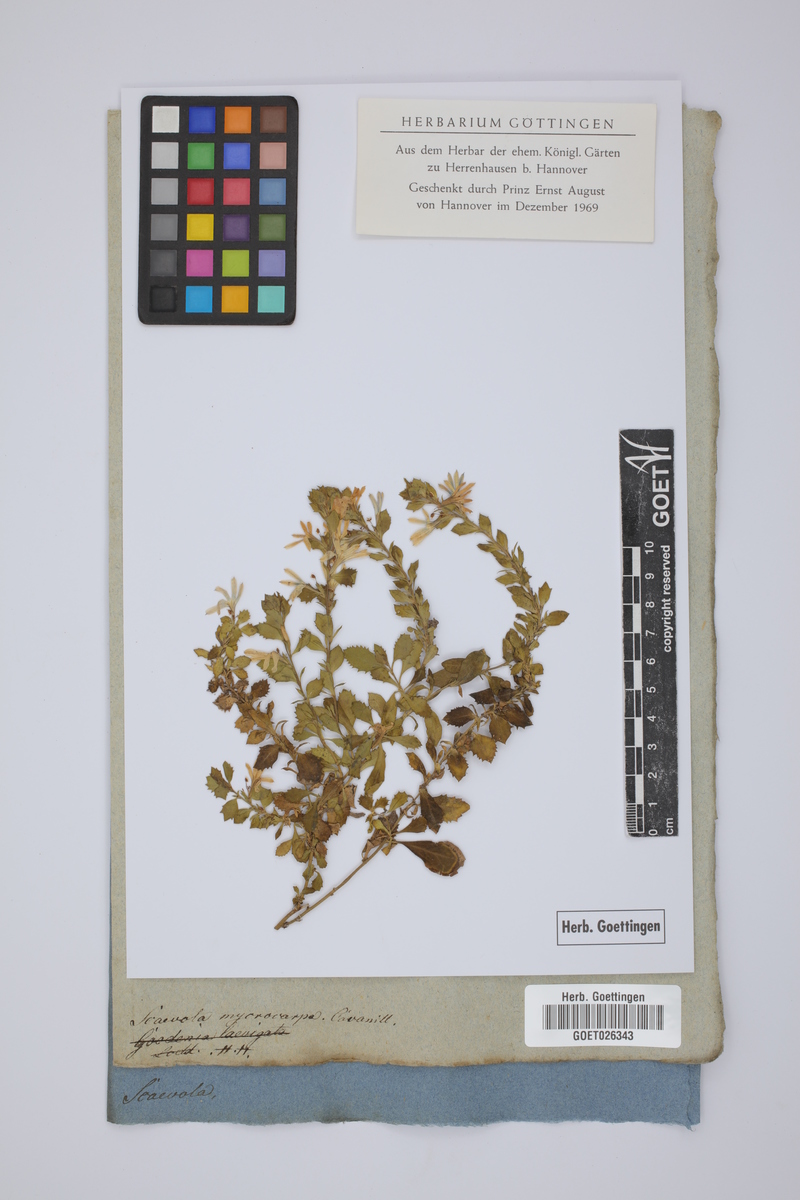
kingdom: Plantae
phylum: Tracheophyta
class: Magnoliopsida
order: Asterales
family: Goodeniaceae
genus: Scaevola
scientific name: Scaevola albida
